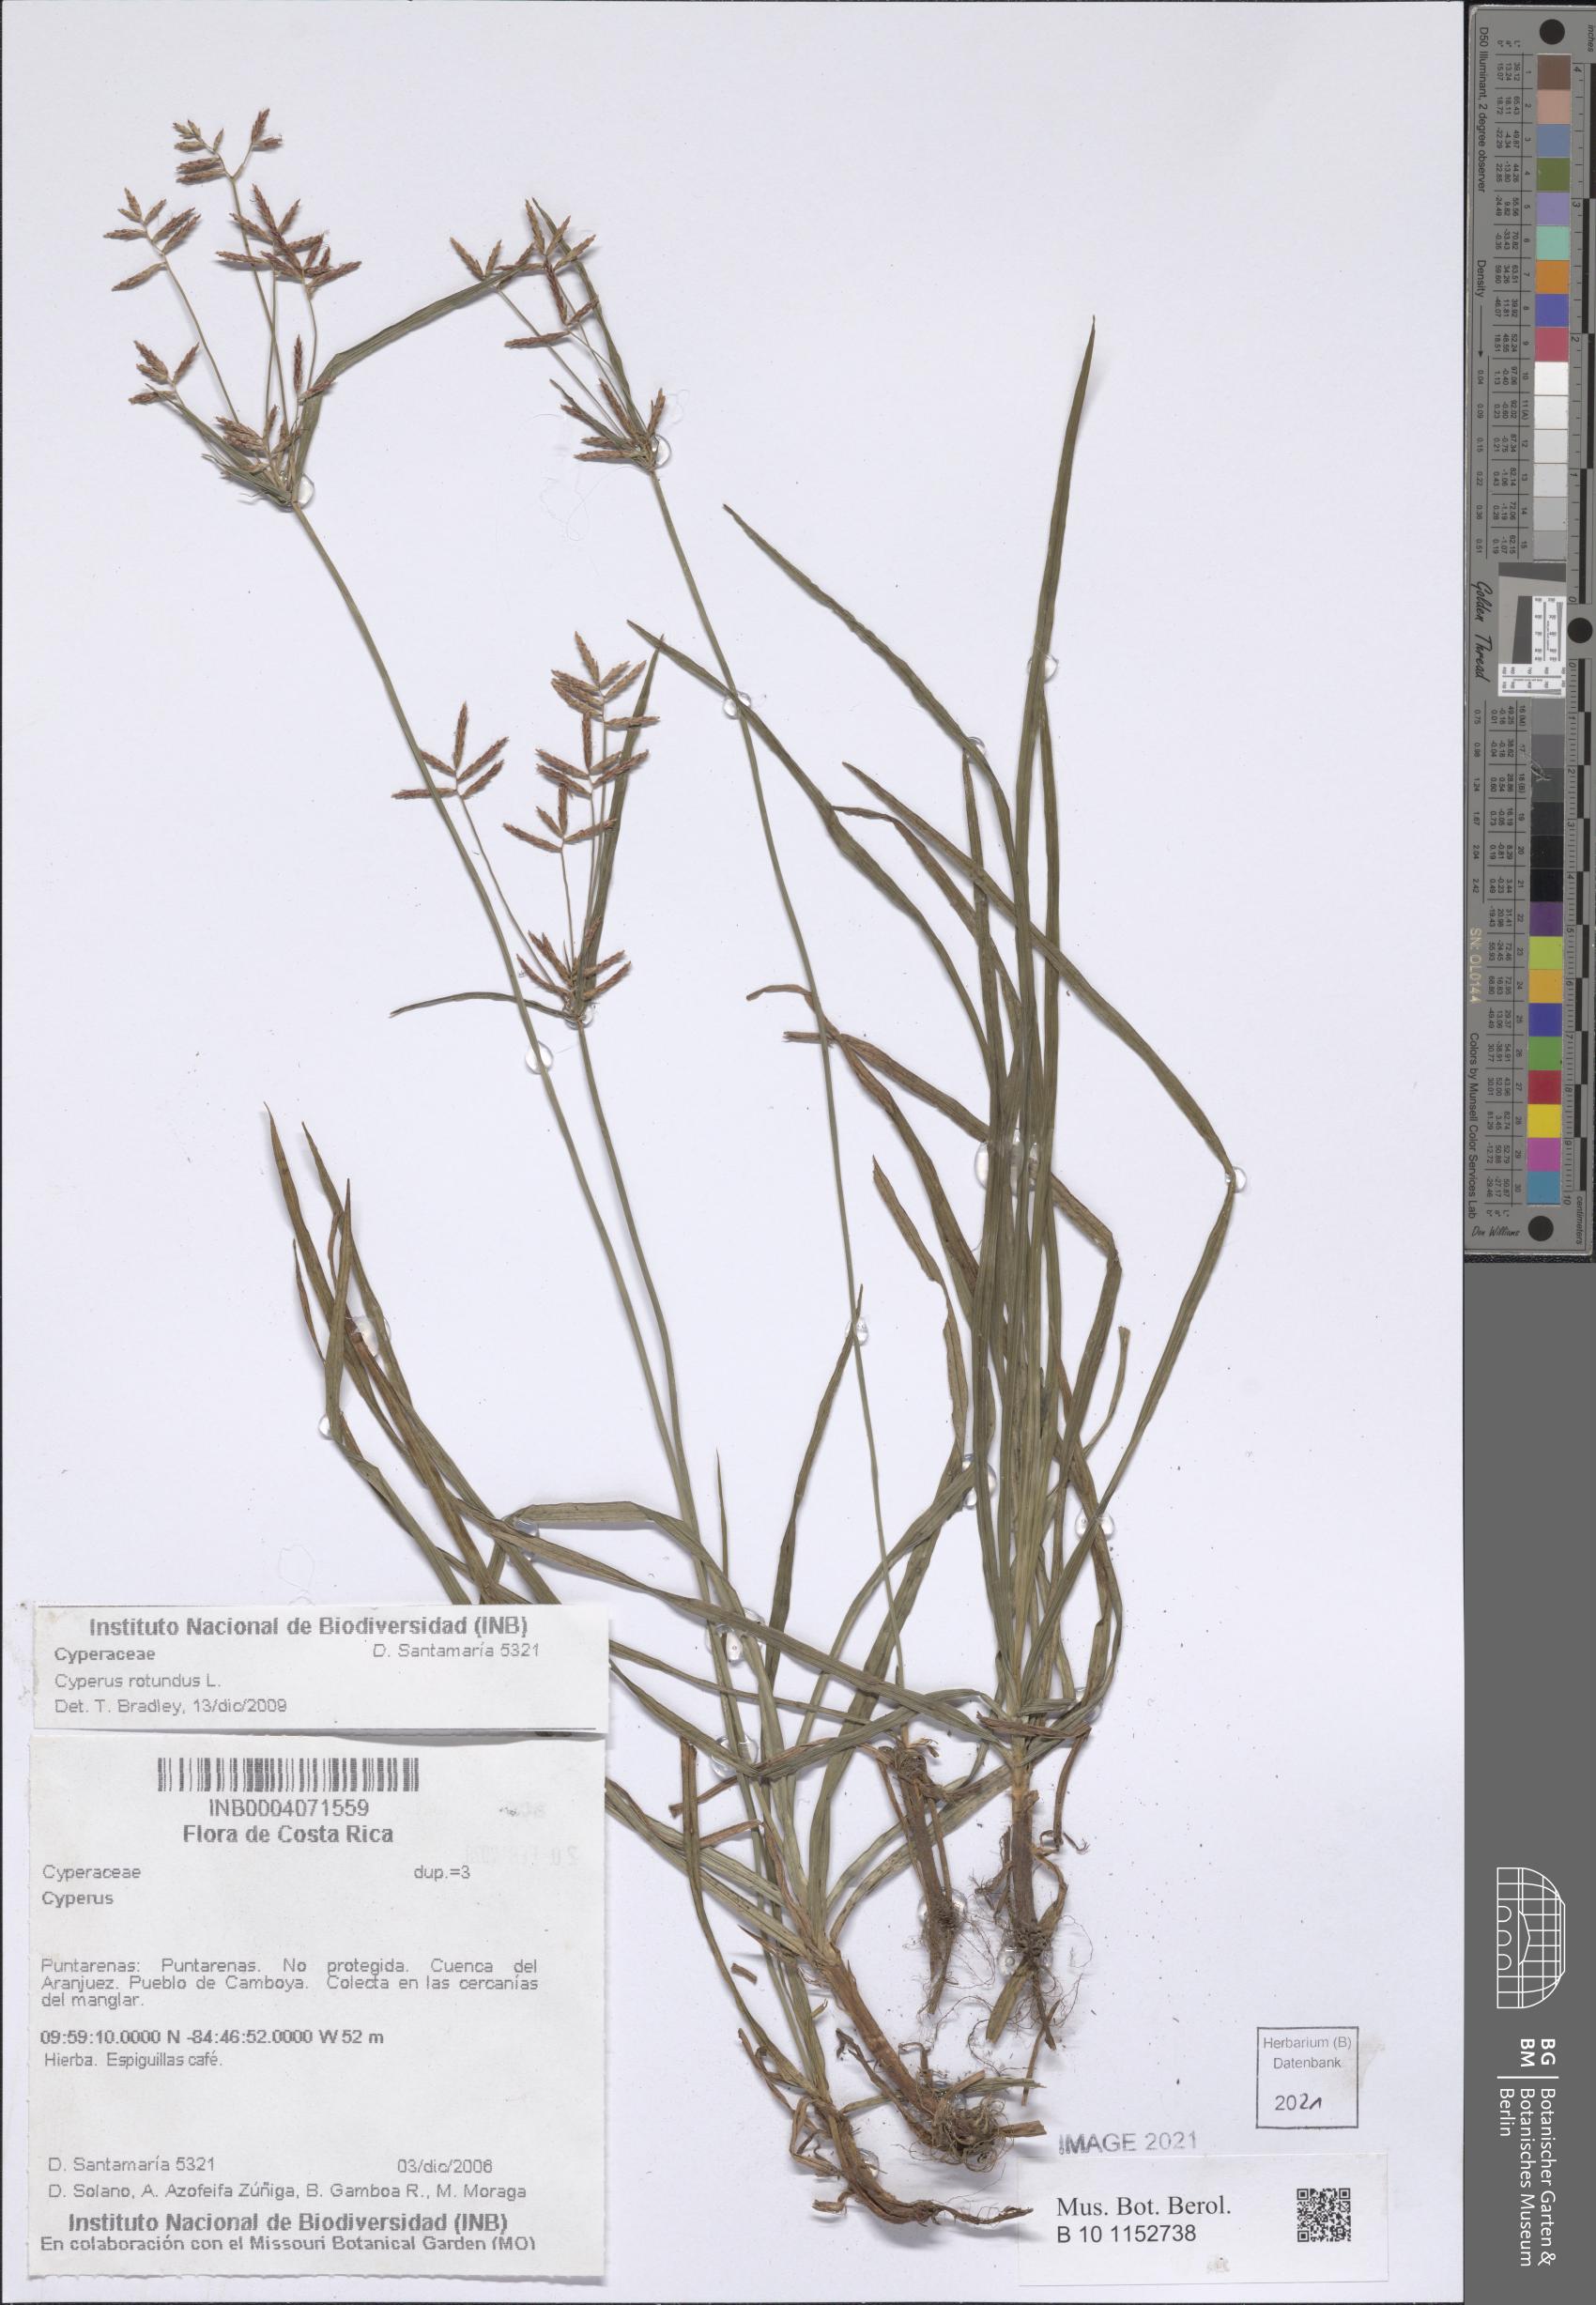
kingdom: Plantae
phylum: Tracheophyta
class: Liliopsida
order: Poales
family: Cyperaceae
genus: Cyperus
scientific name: Cyperus rotundus
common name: Nutgrass
